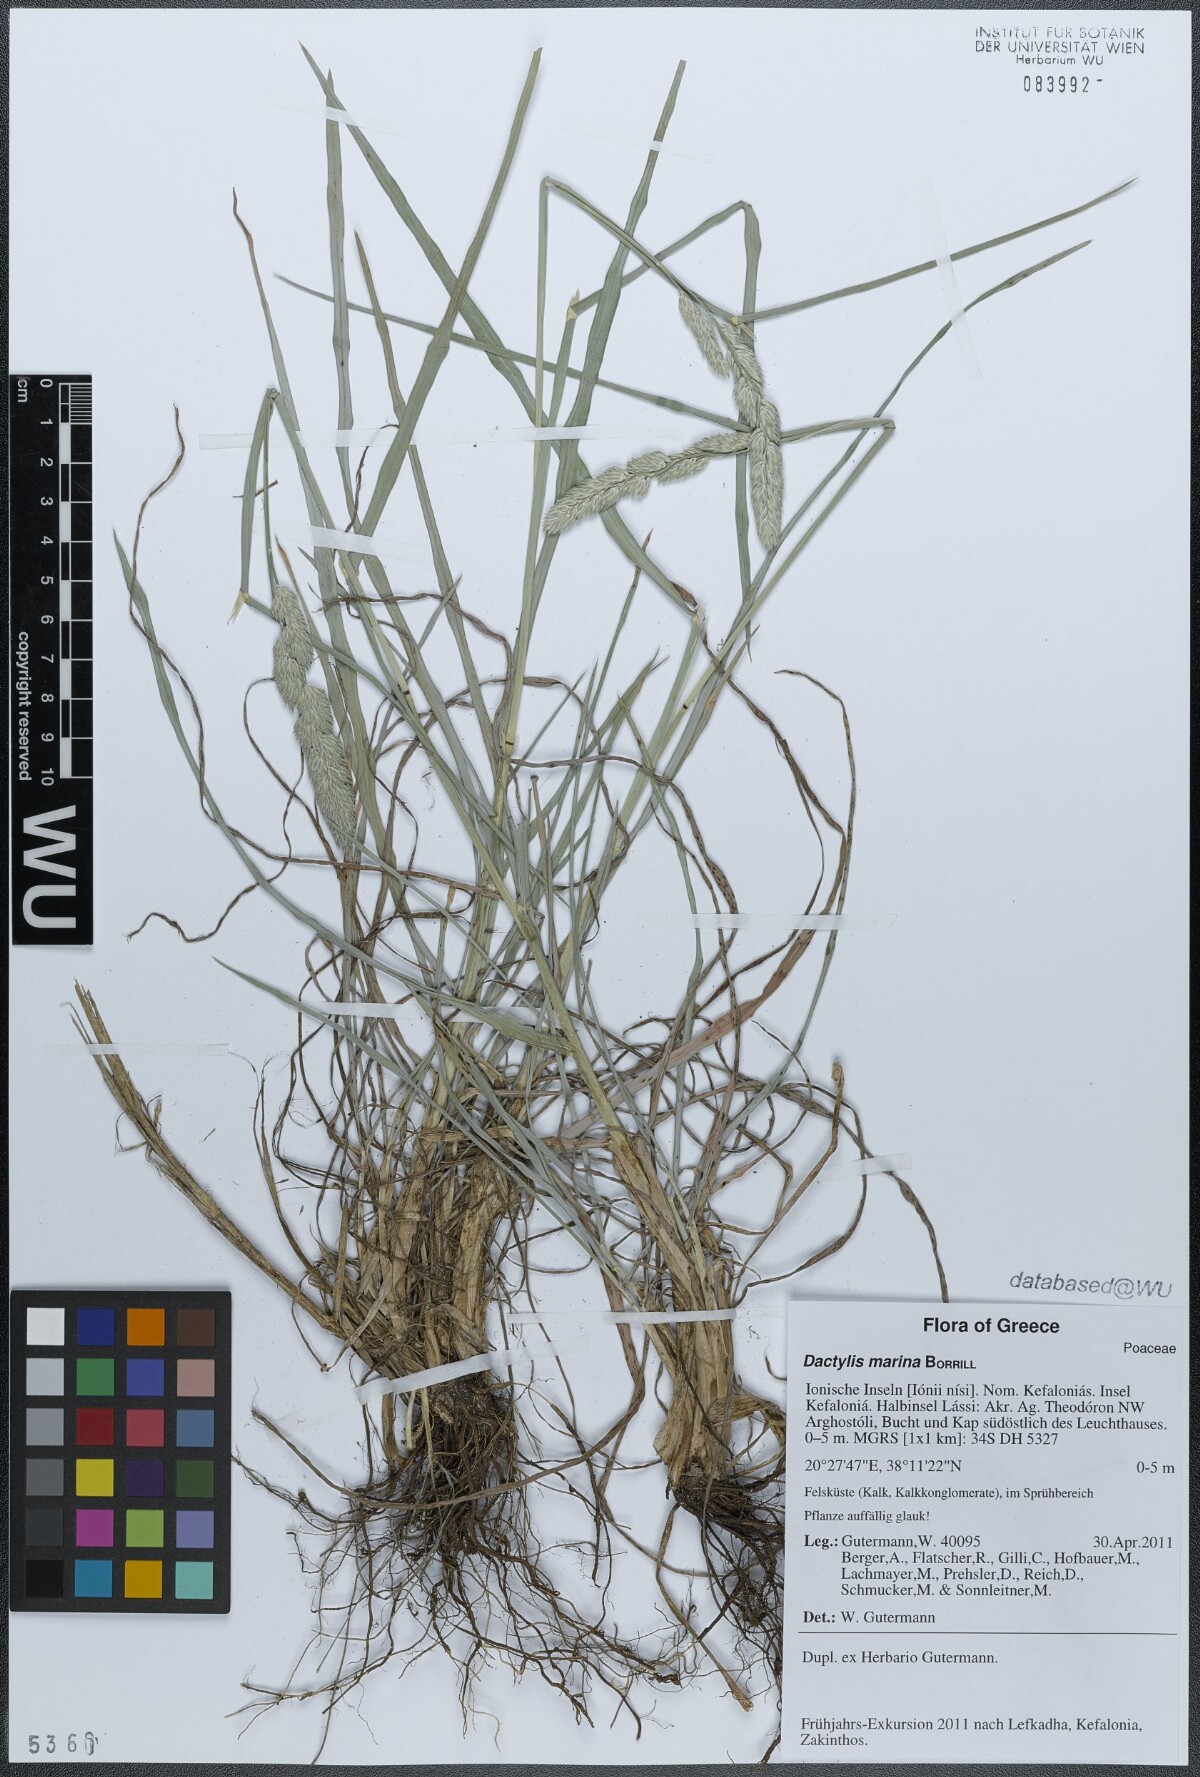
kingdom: Plantae
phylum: Tracheophyta
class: Liliopsida
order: Poales
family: Poaceae
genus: Dactylis
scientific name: Dactylis glomerata
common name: Orchardgrass
